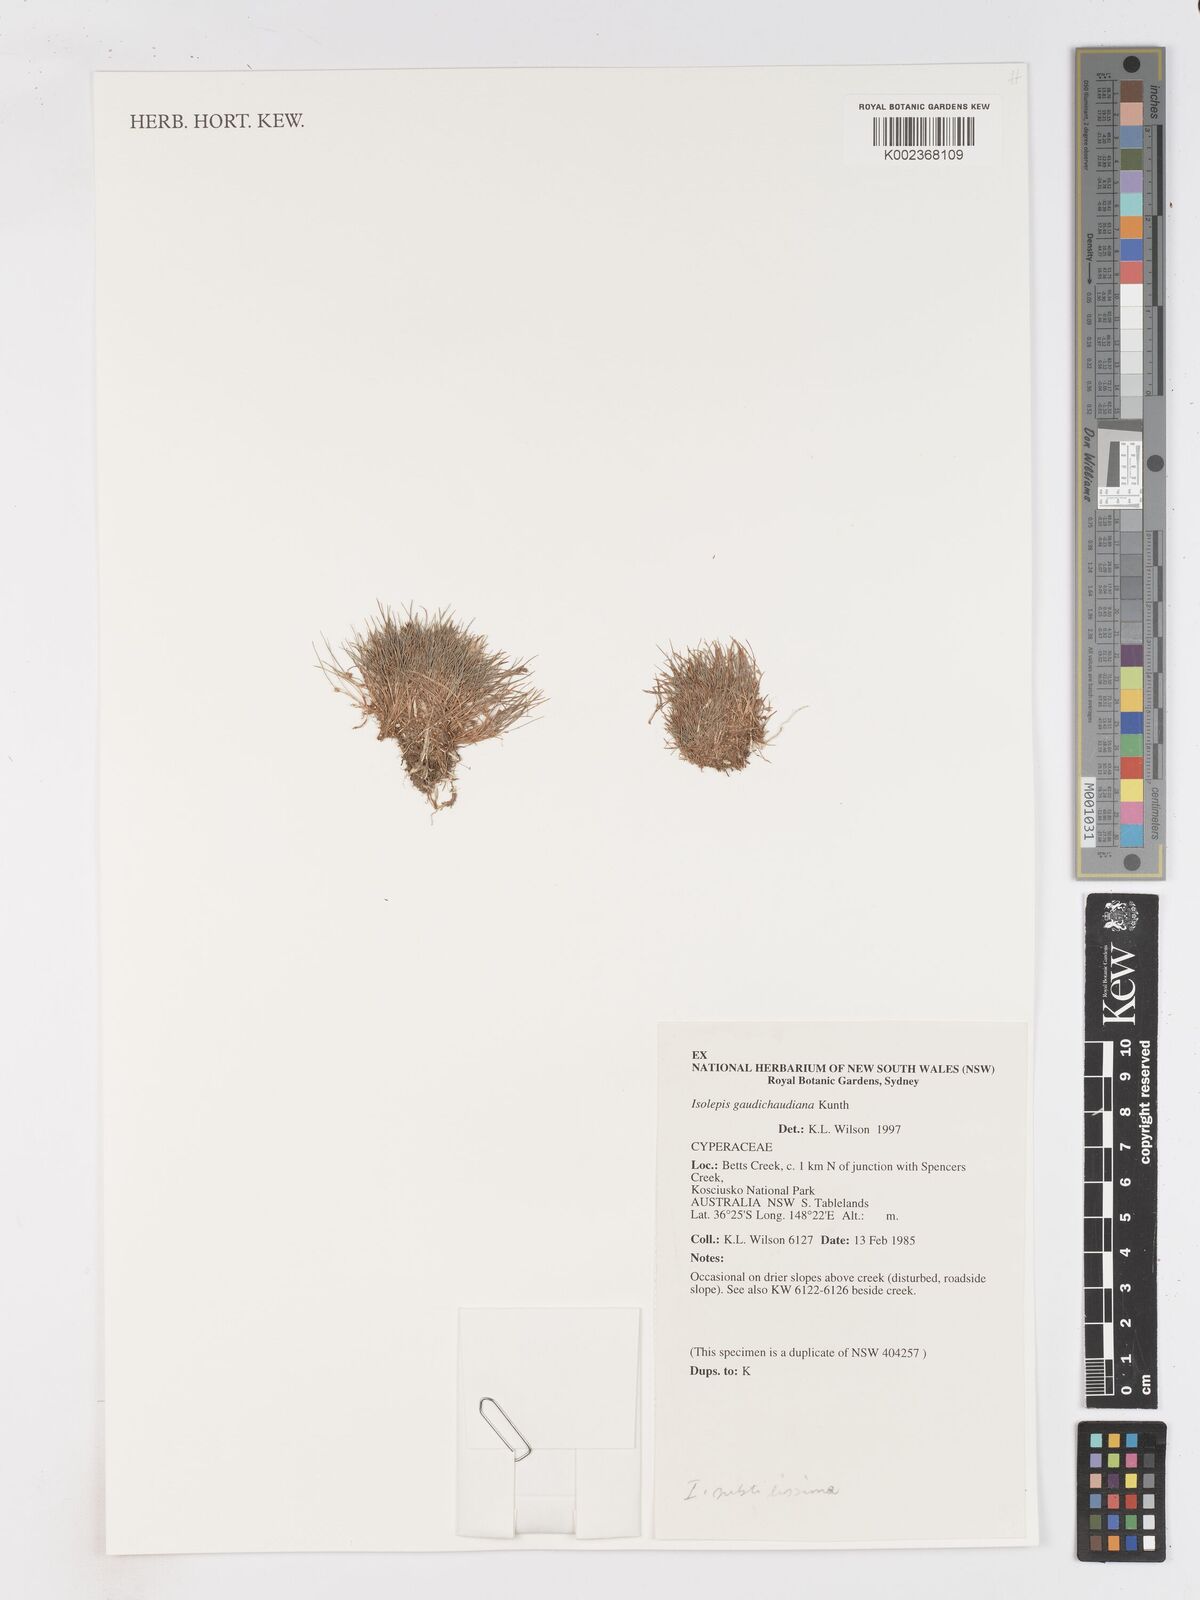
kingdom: Plantae
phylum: Tracheophyta
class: Liliopsida
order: Poales
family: Cyperaceae
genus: Isolepis
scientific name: Isolepis gaudichaudiana
